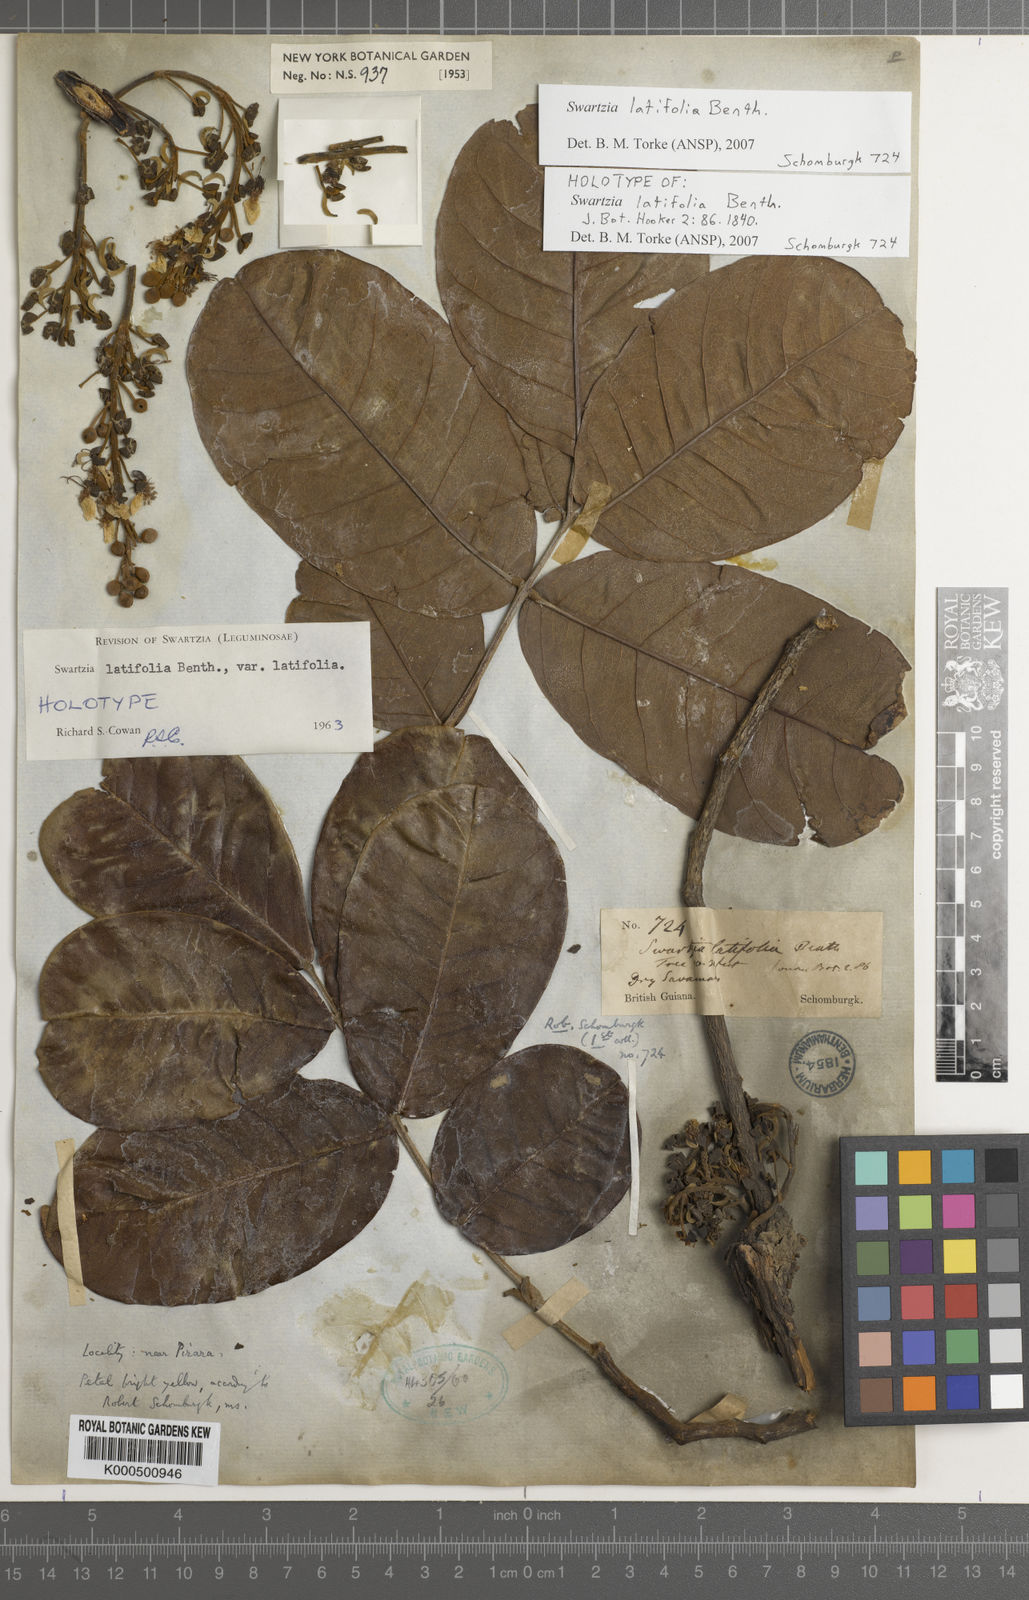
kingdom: Plantae
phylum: Tracheophyta
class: Magnoliopsida
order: Fabales
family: Fabaceae
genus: Swartzia
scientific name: Swartzia latifolia
